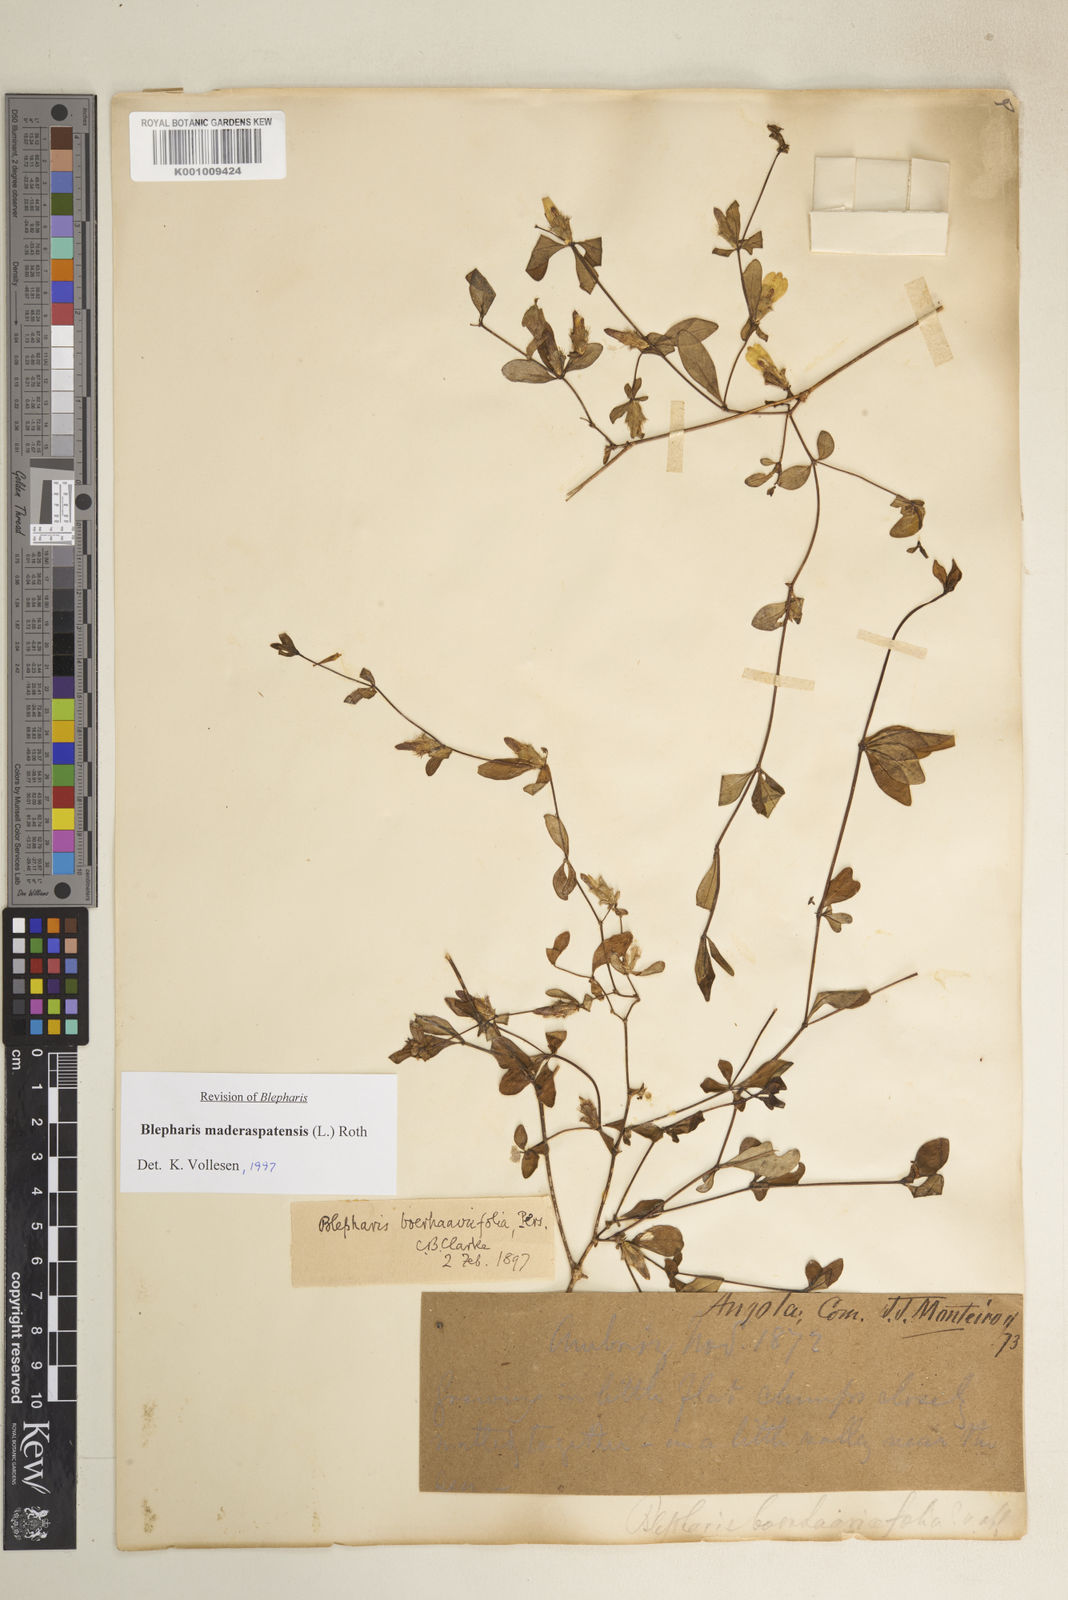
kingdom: Plantae
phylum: Tracheophyta
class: Magnoliopsida
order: Lamiales
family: Acanthaceae
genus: Blepharis
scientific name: Blepharis maderaspatensis
